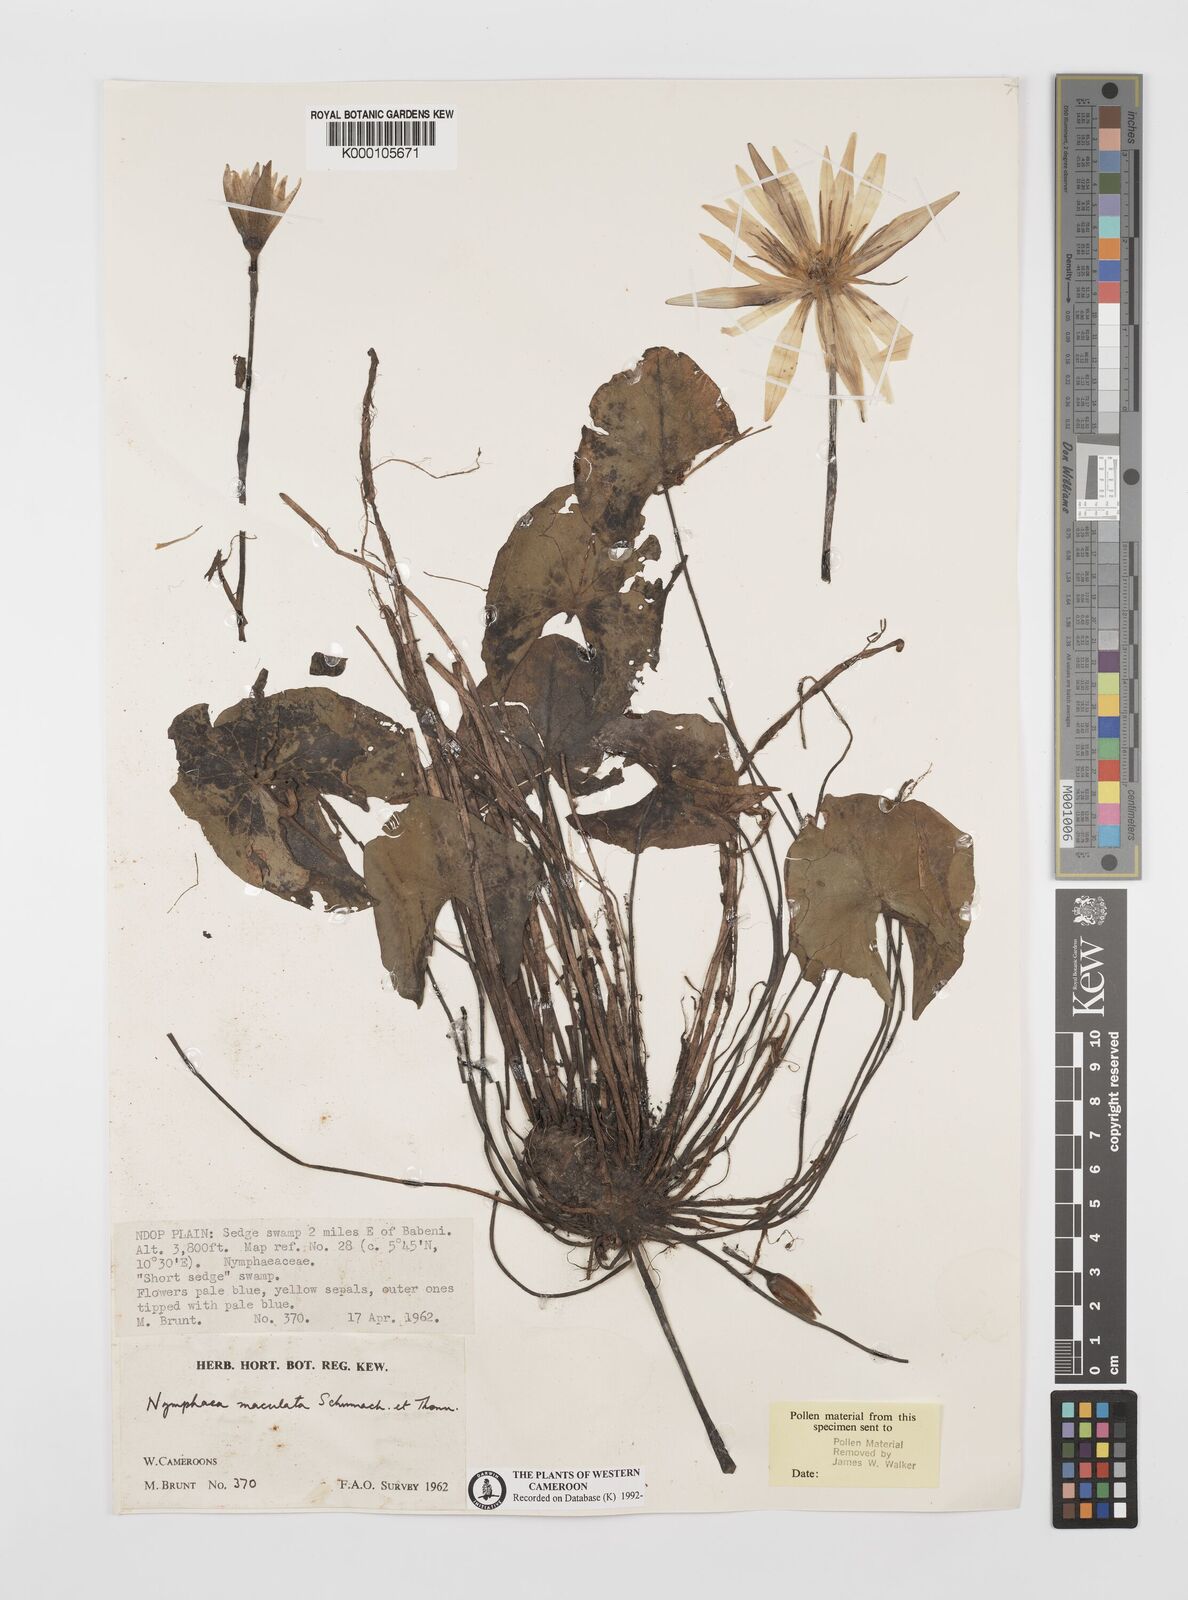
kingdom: Plantae
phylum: Tracheophyta
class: Magnoliopsida
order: Nymphaeales
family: Nymphaeaceae
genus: Nymphaea
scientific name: Nymphaea maculata
